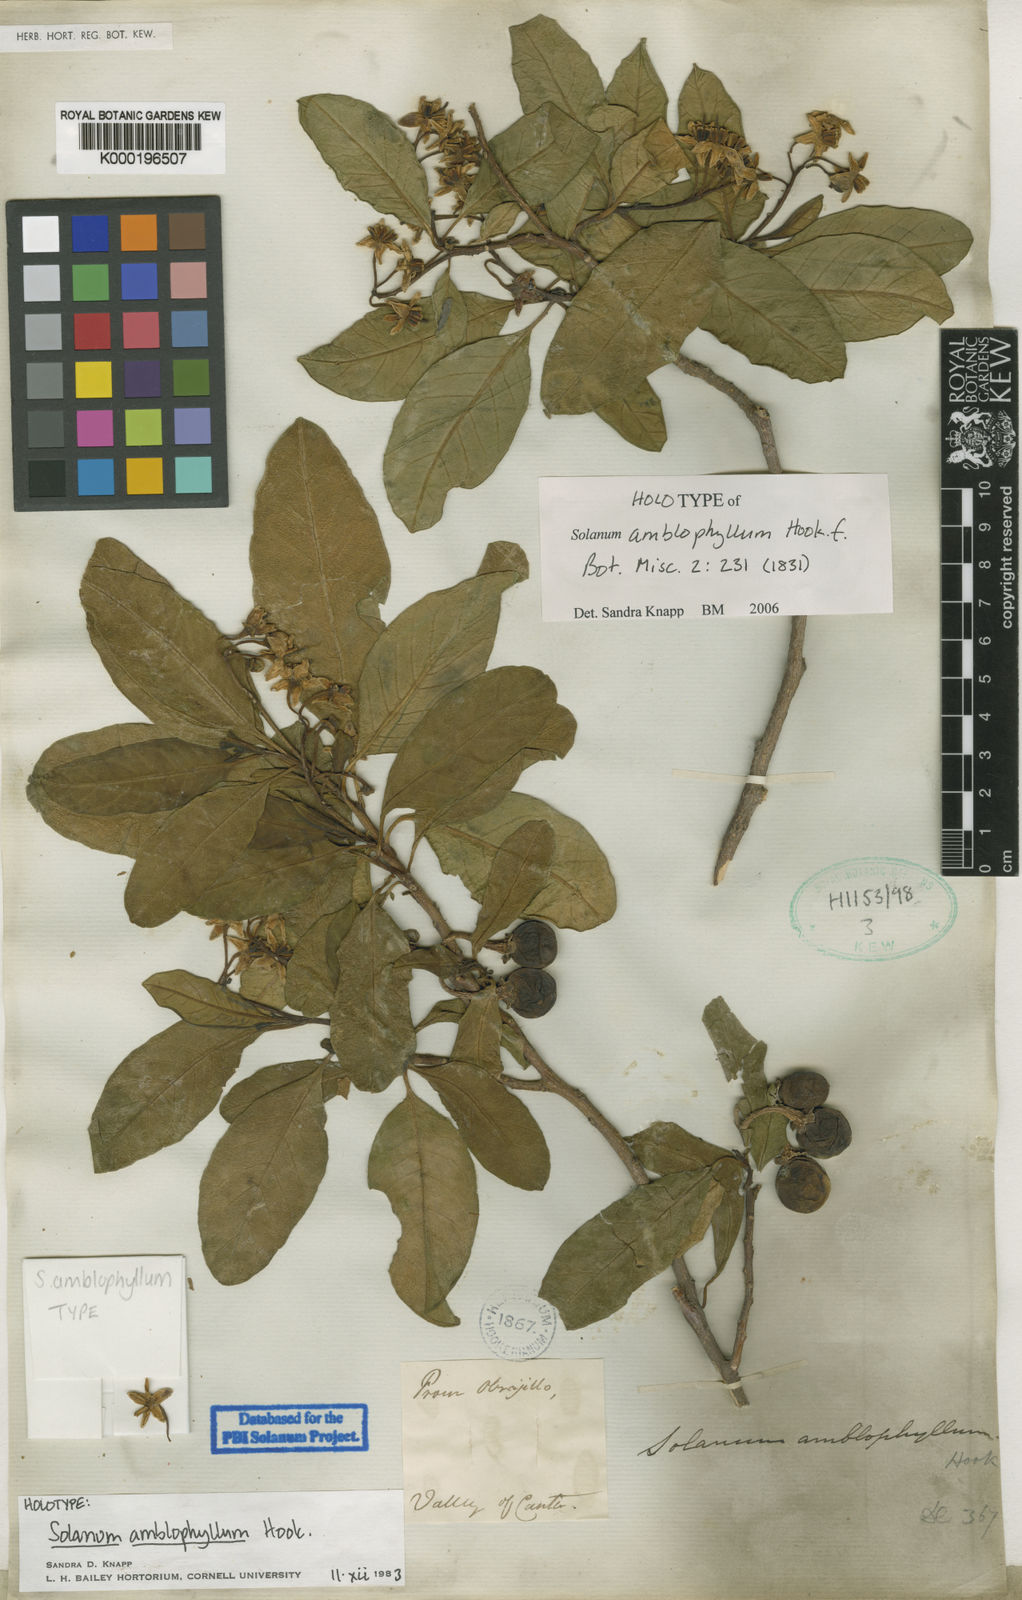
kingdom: Plantae
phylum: Tracheophyta
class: Magnoliopsida
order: Solanales
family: Solanaceae
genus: Solanum
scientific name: Solanum amblophyllum
